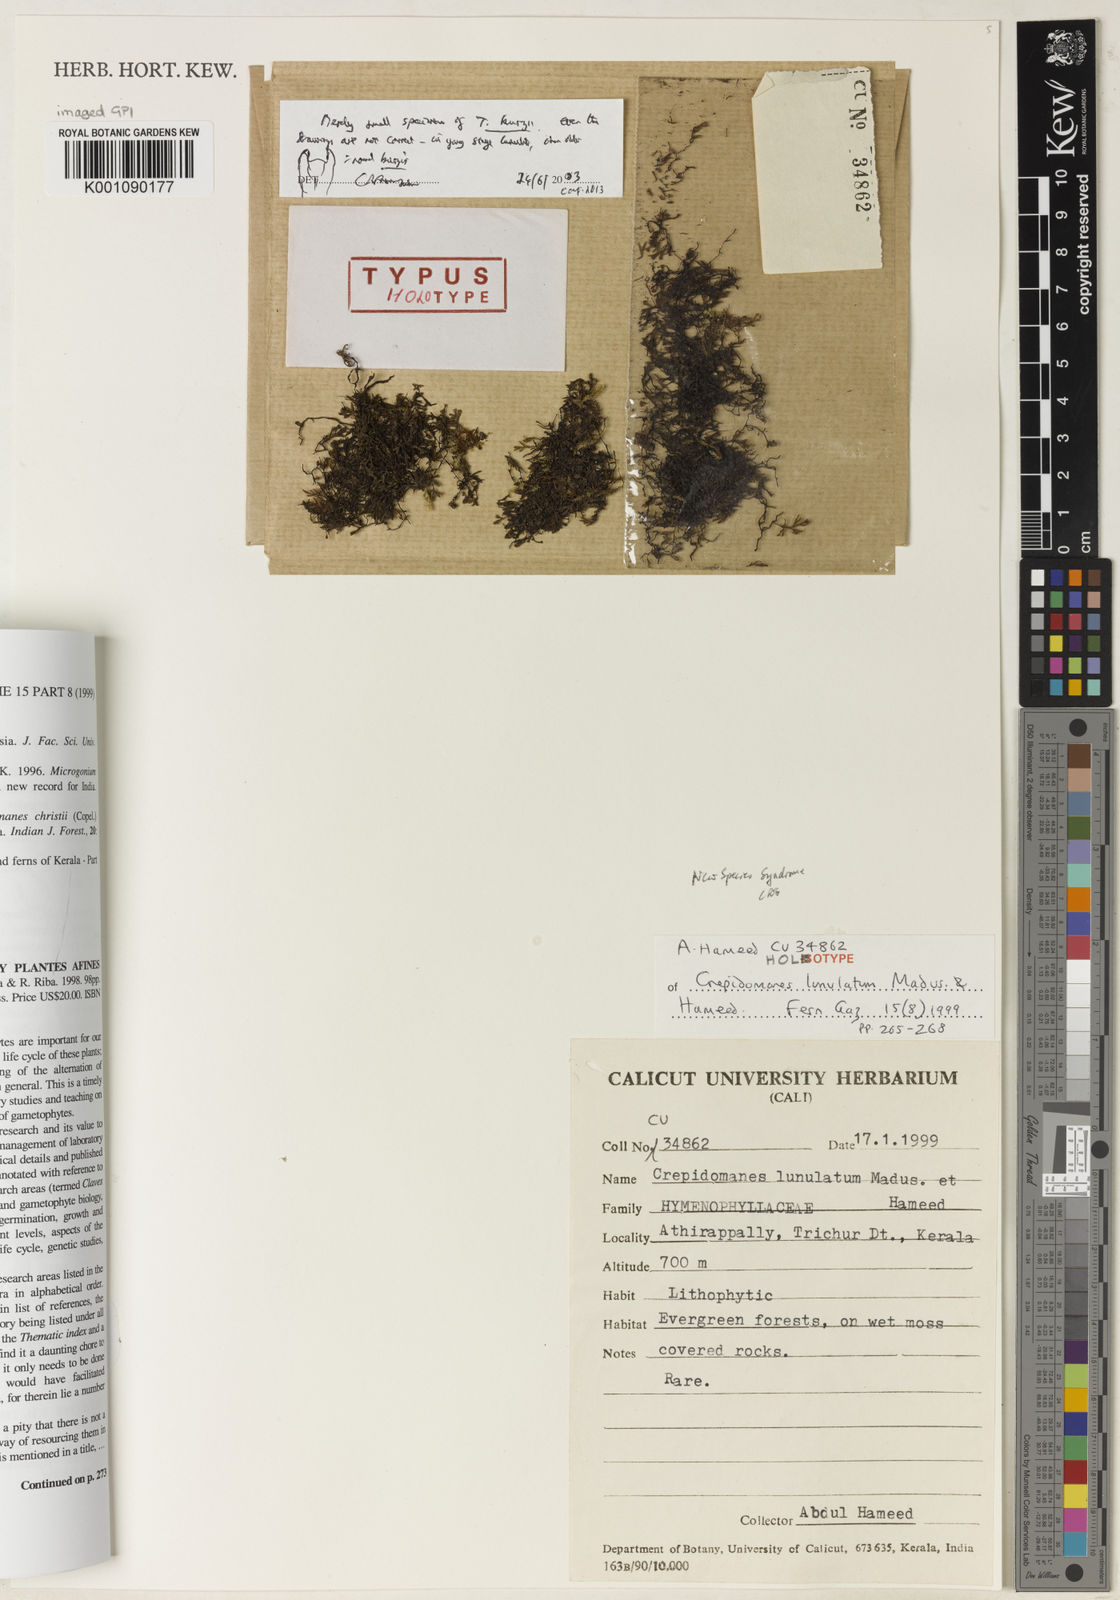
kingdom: Plantae
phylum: Tracheophyta
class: Polypodiopsida
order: Hymenophyllales
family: Hymenophyllaceae
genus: Crepidomanes
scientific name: Crepidomanes intramarginale
